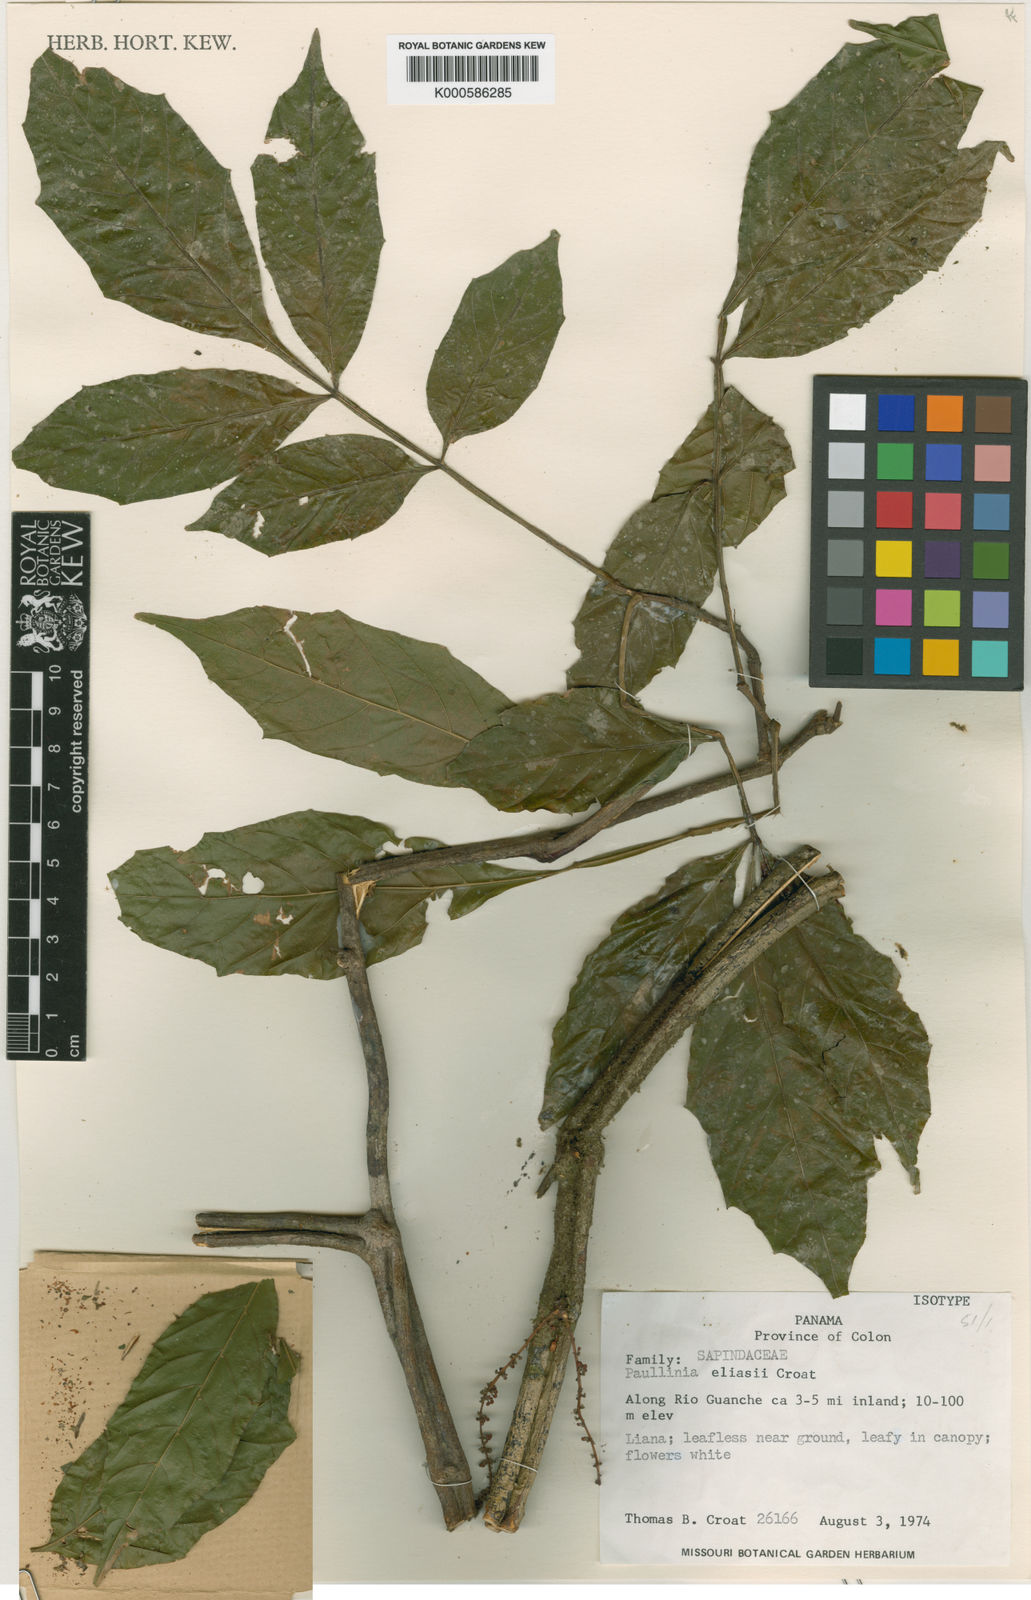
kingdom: Plantae
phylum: Tracheophyta
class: Magnoliopsida
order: Sapindales
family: Sapindaceae
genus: Paullinia
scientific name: Paullinia fraxinifolia
